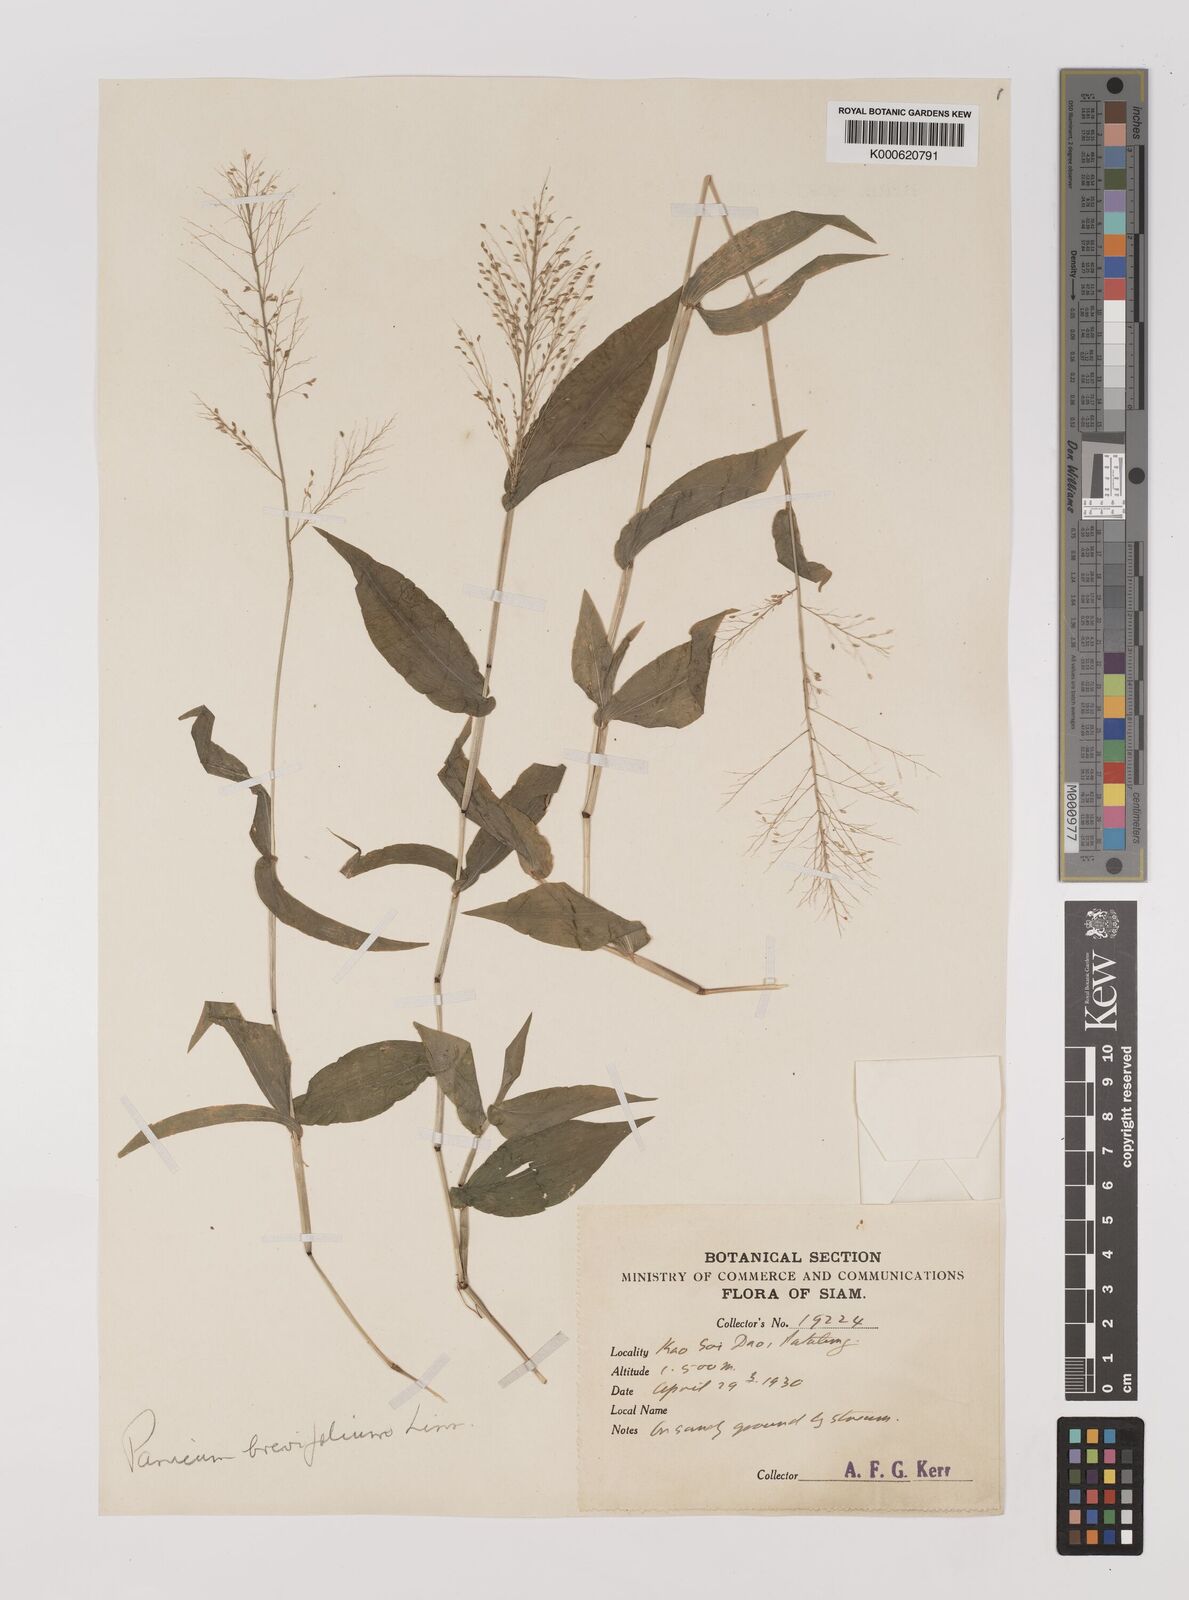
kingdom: Plantae
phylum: Tracheophyta
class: Liliopsida
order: Poales
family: Poaceae
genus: Panicum
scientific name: Panicum brevifolium
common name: Shortleaf panic grass
